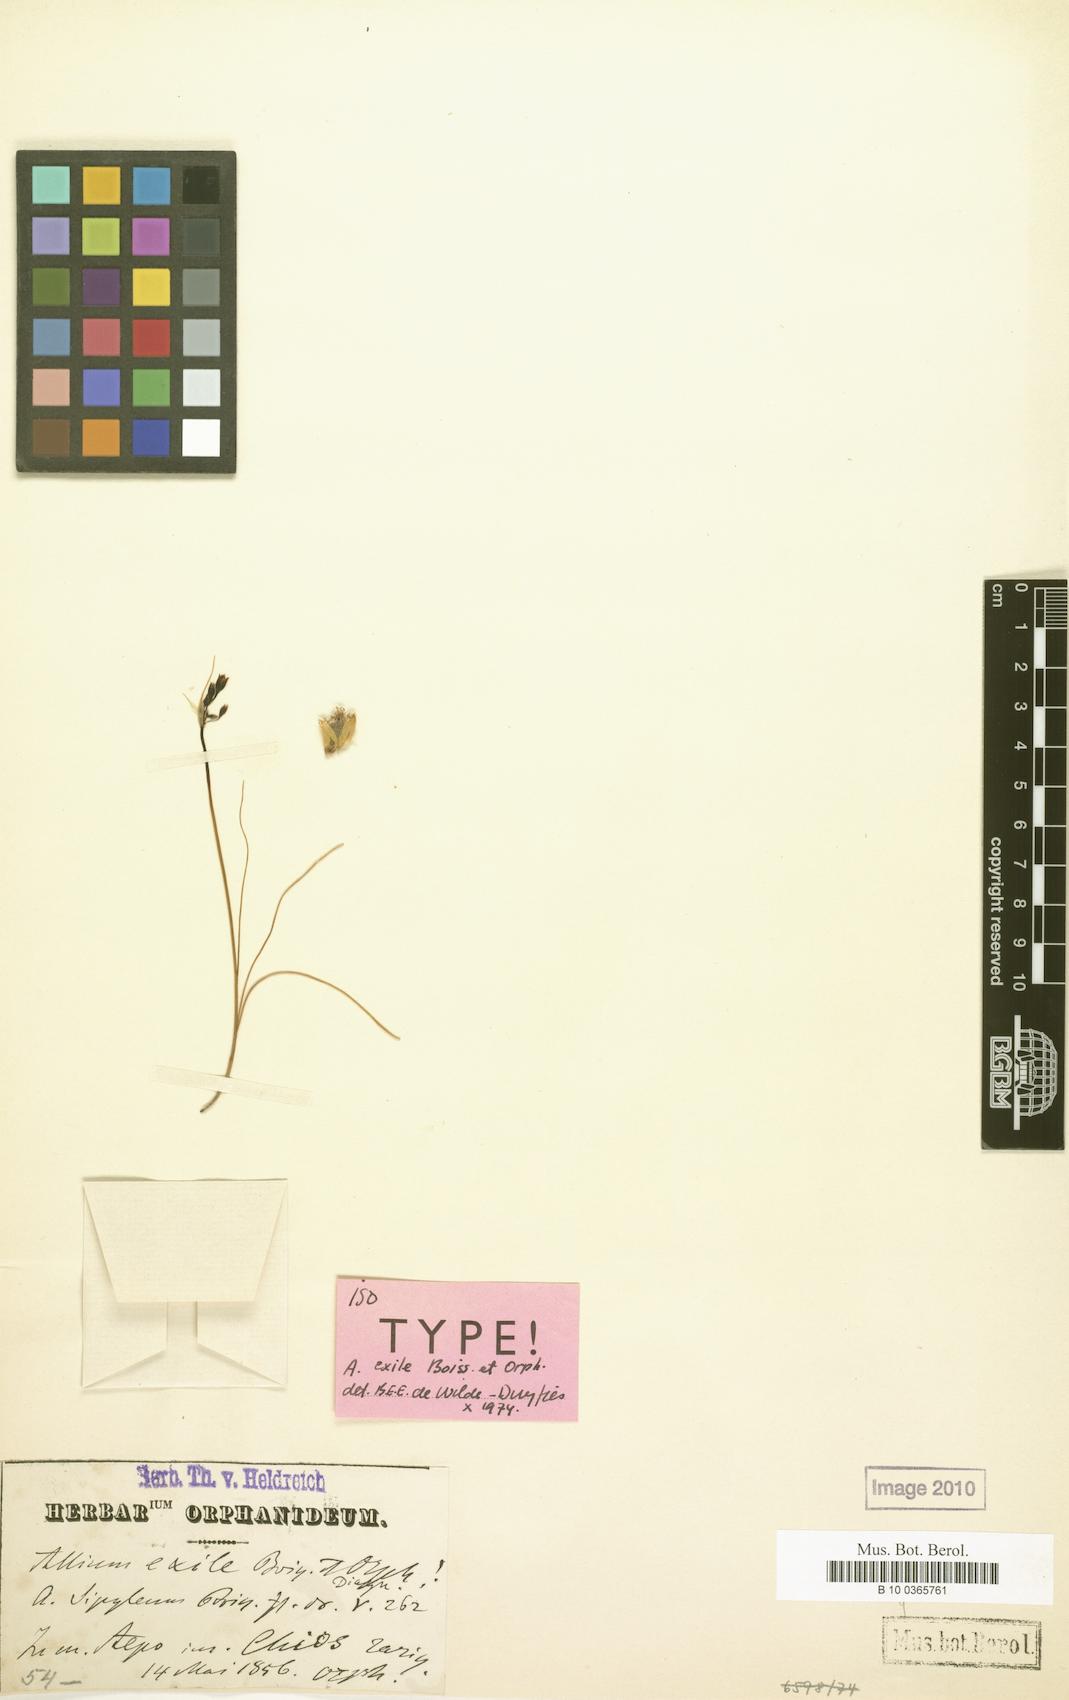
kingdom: Plantae
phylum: Tracheophyta
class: Liliopsida
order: Asparagales
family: Amaryllidaceae
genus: Allium
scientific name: Allium exile
